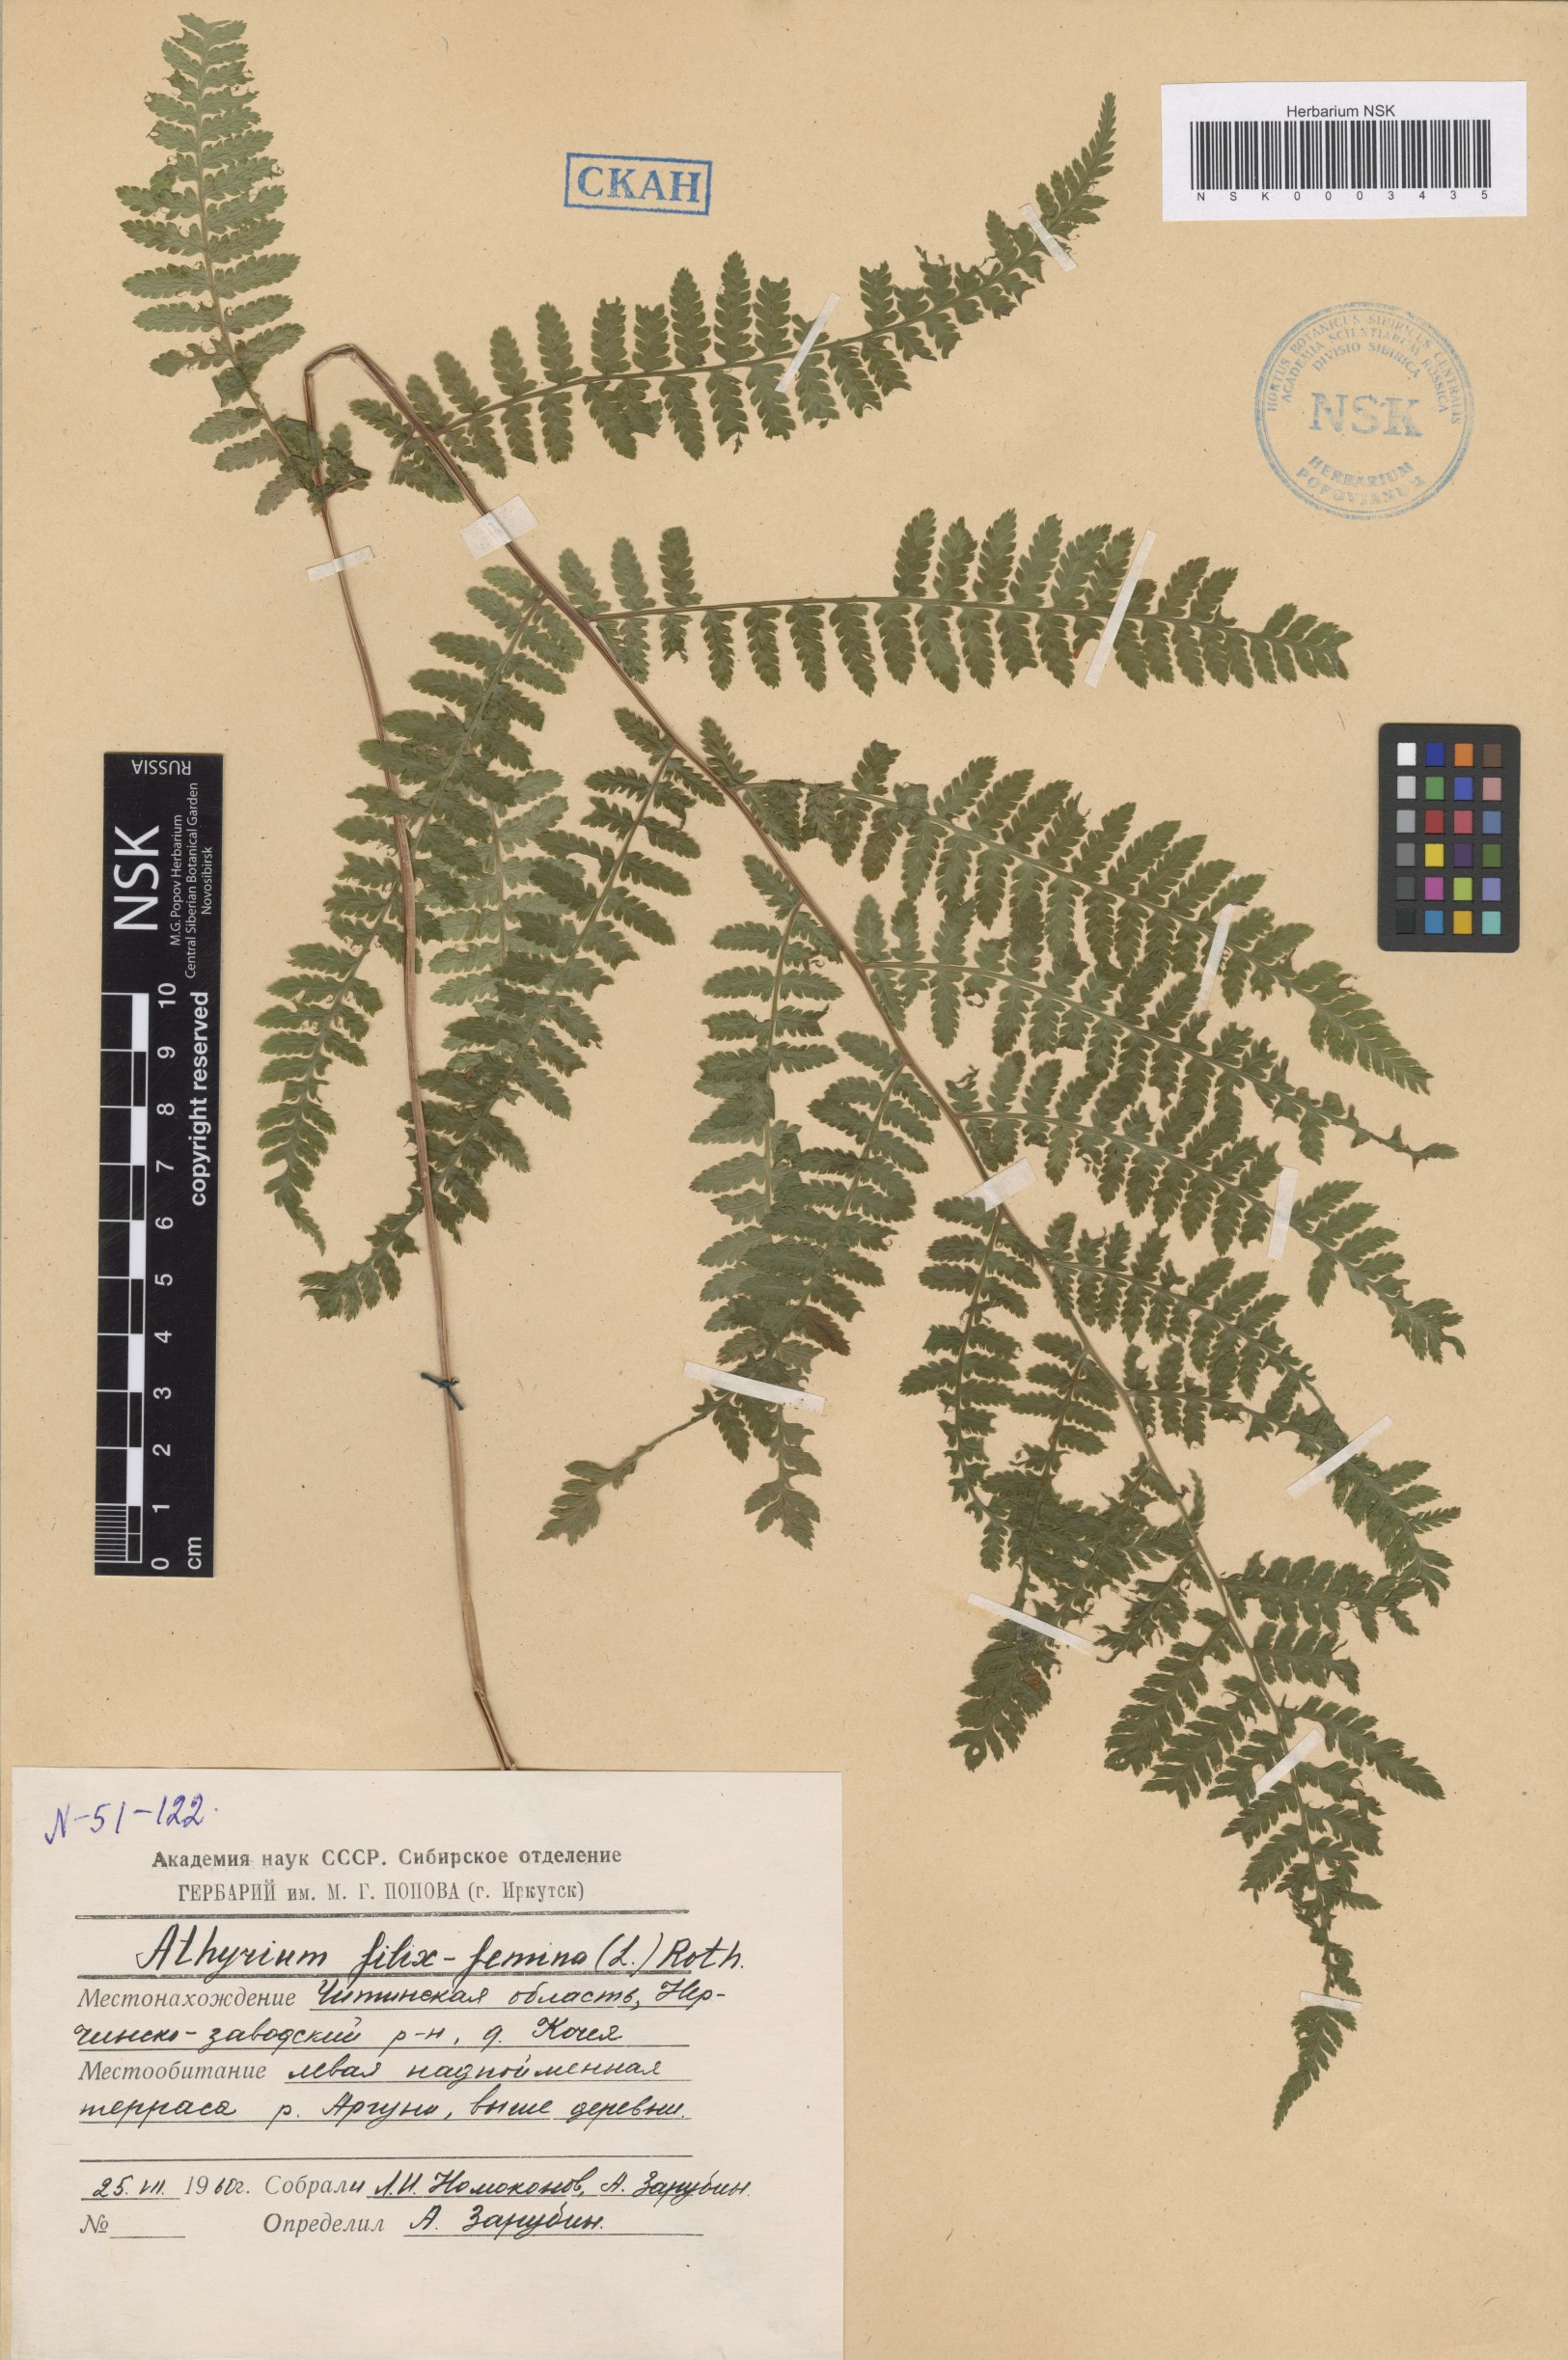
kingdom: Plantae
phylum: Tracheophyta
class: Polypodiopsida
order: Polypodiales
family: Athyriaceae
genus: Athyrium
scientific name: Athyrium filix-femina
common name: Lady fern
